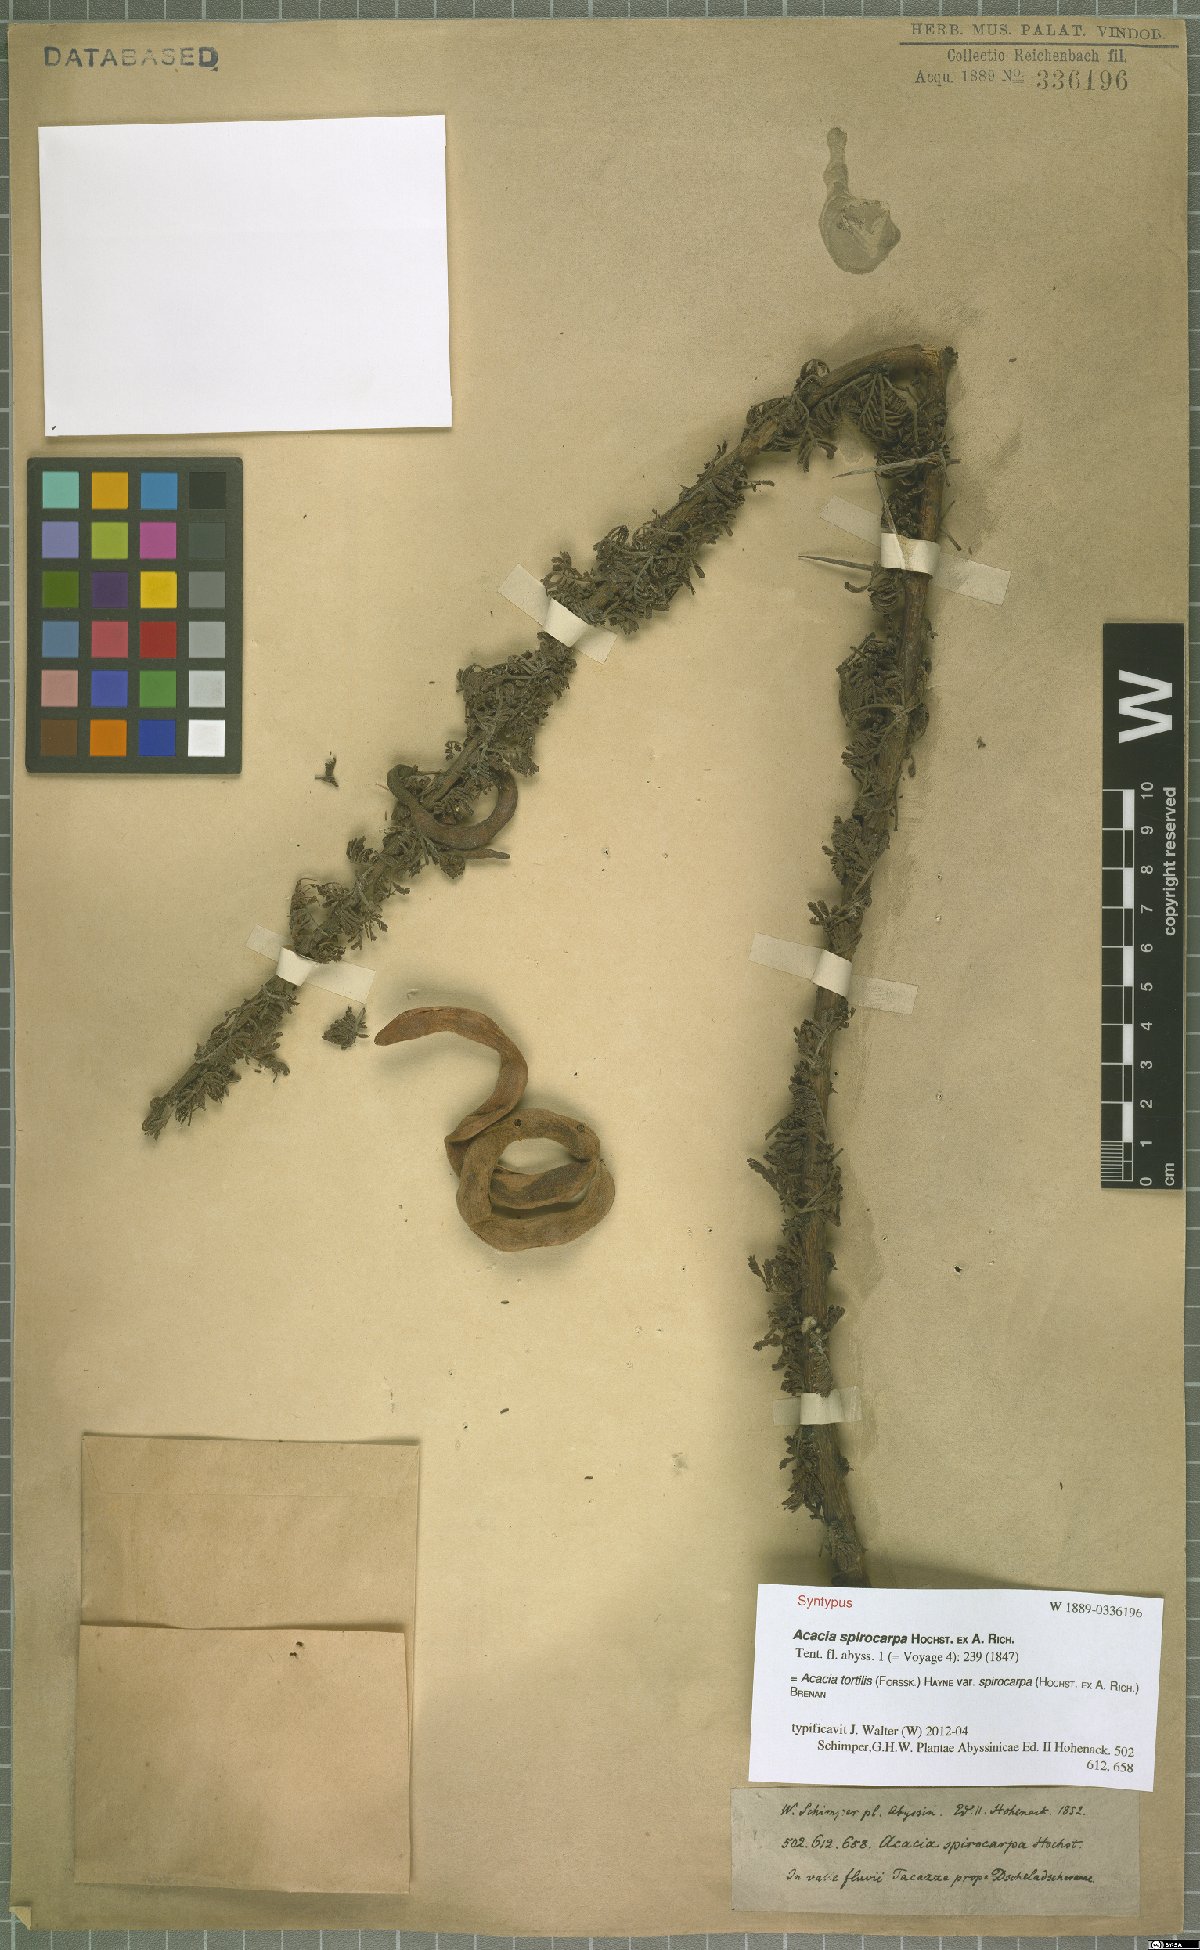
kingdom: Plantae
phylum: Tracheophyta
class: Magnoliopsida
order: Fabales
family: Fabaceae
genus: Vachellia
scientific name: Vachellia tortilis
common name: Umbrella thorn acacia
